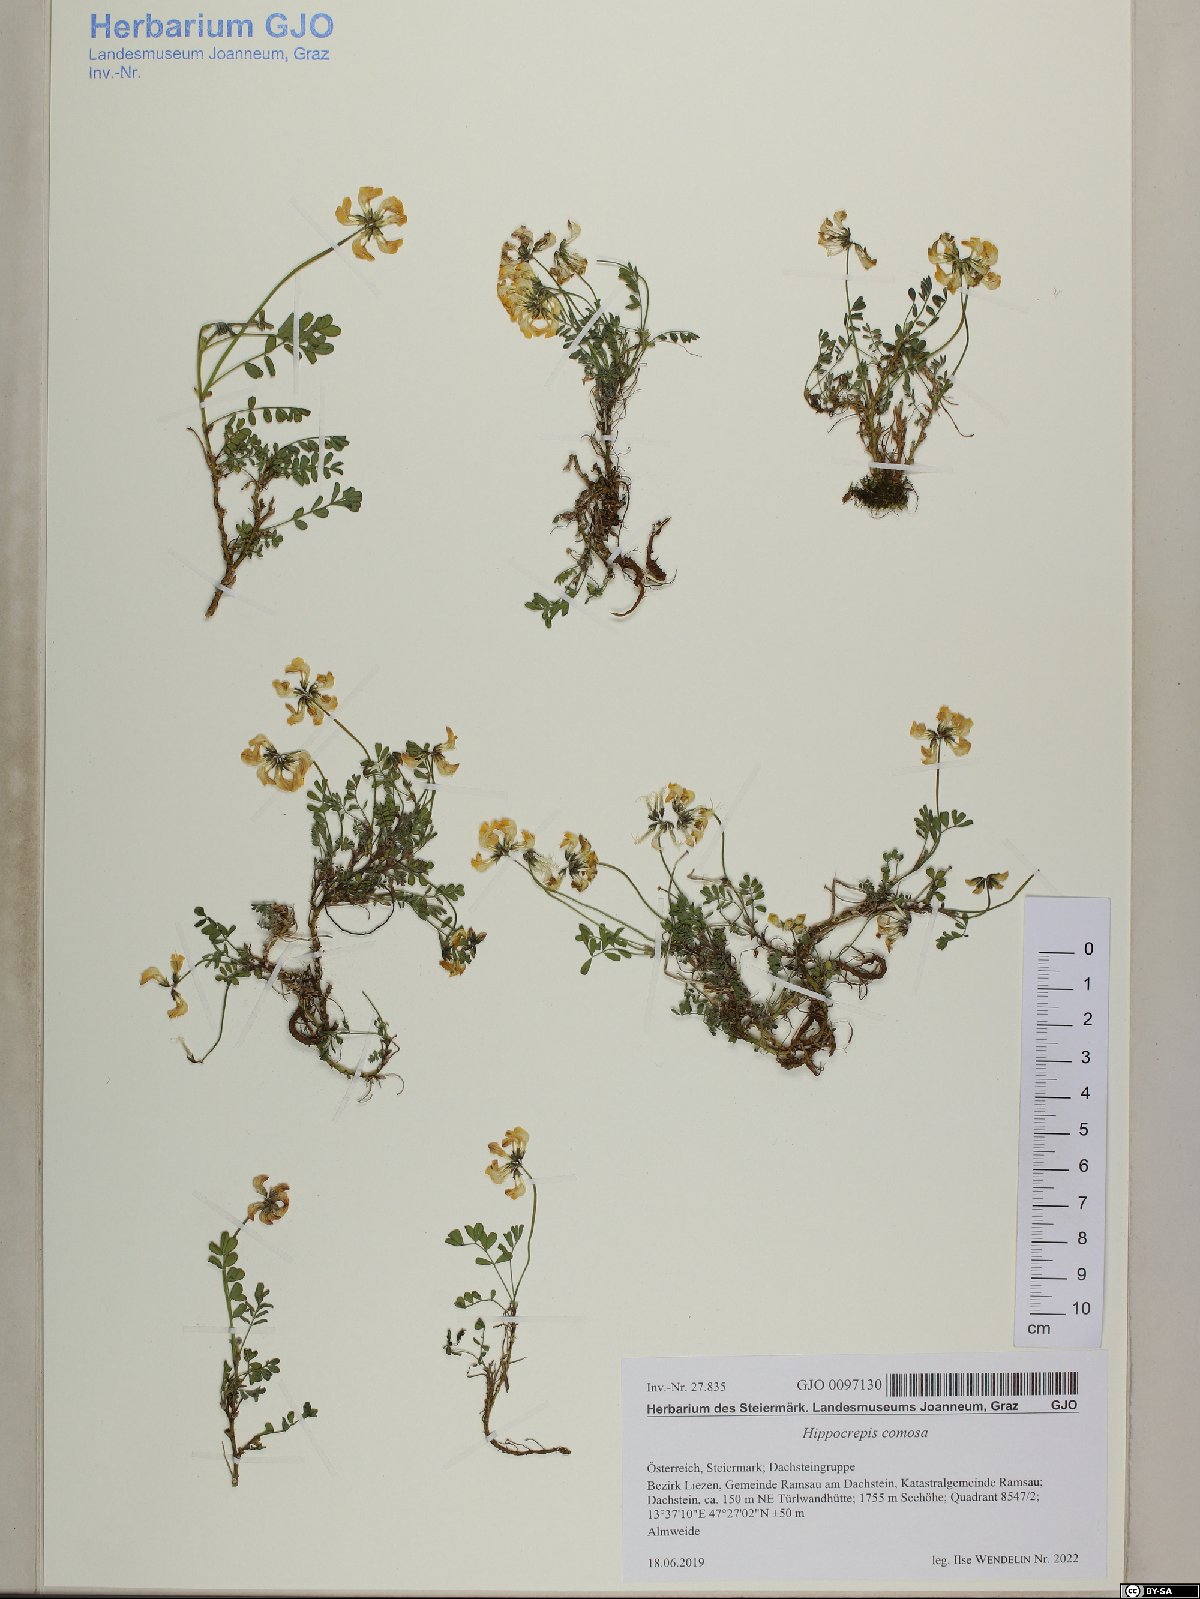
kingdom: Plantae
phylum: Tracheophyta
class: Magnoliopsida
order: Fabales
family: Fabaceae
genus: Hippocrepis
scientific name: Hippocrepis comosa
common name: Horseshoe vetch
